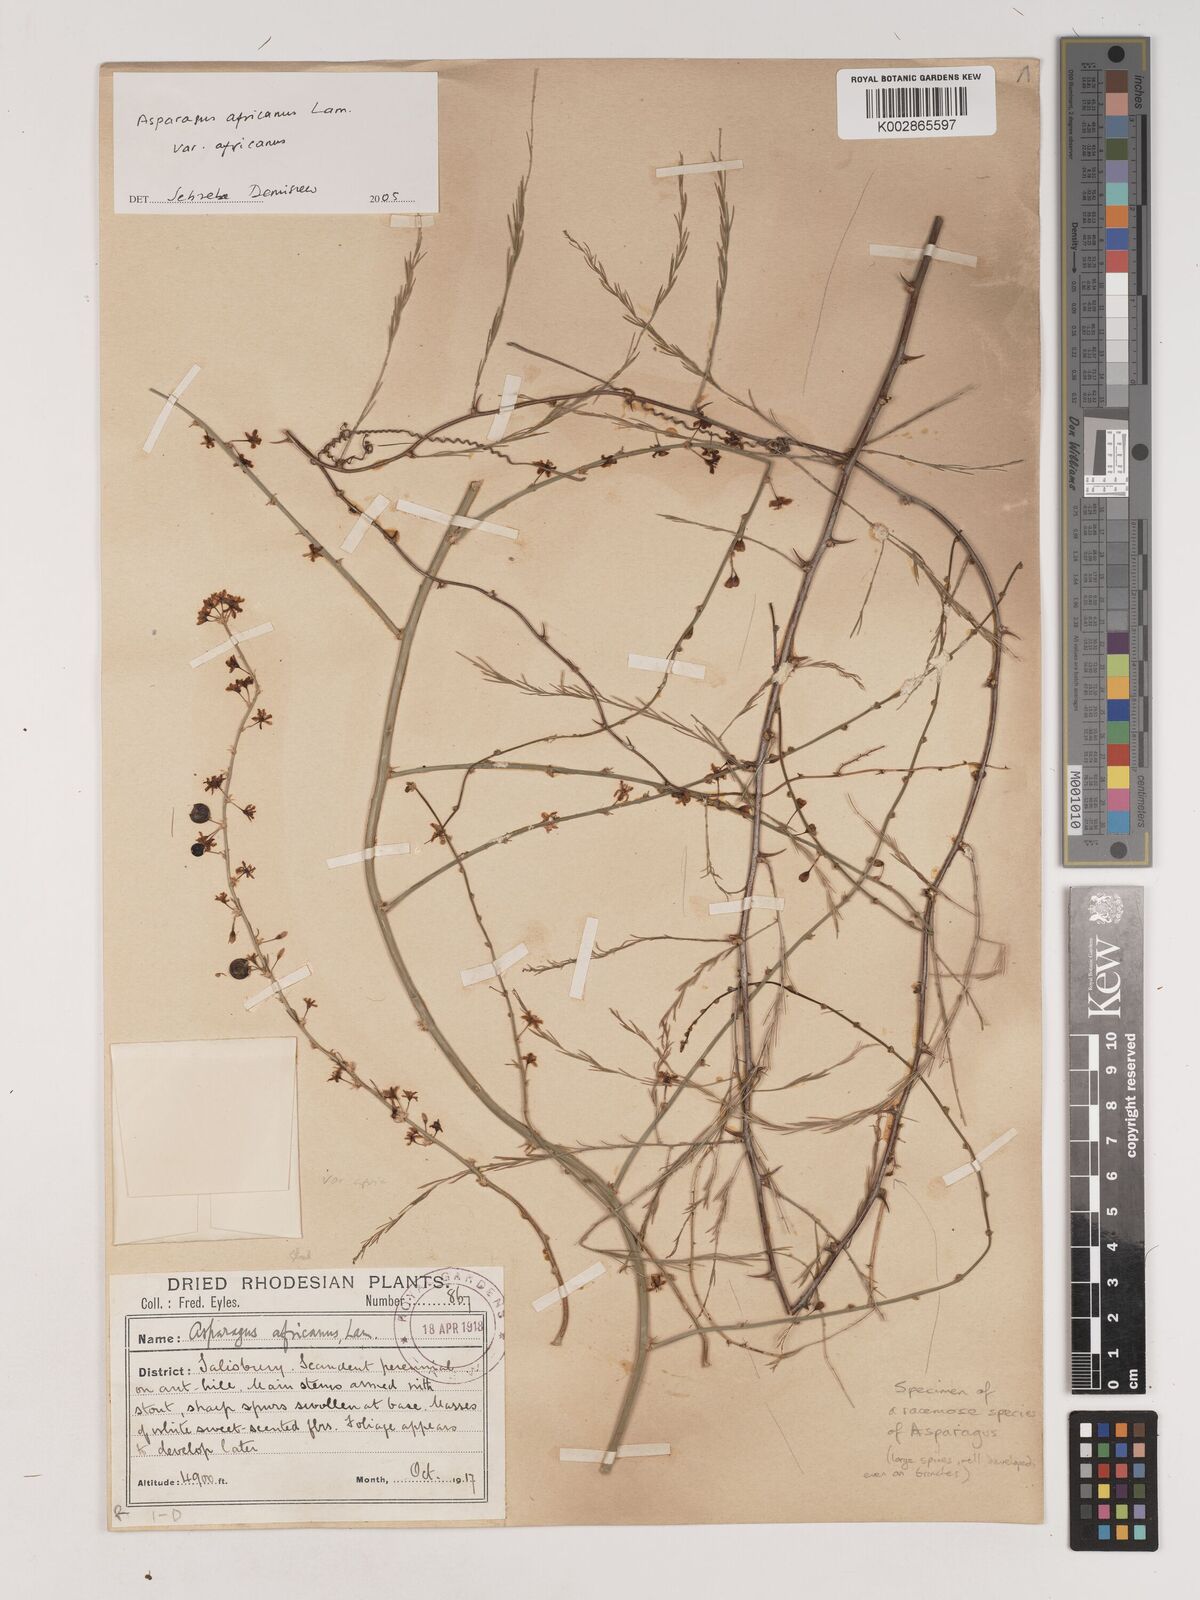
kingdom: Plantae
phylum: Tracheophyta
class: Liliopsida
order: Asparagales
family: Asparagaceae
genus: Asparagus
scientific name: Asparagus africanus
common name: Asparagus-fern
